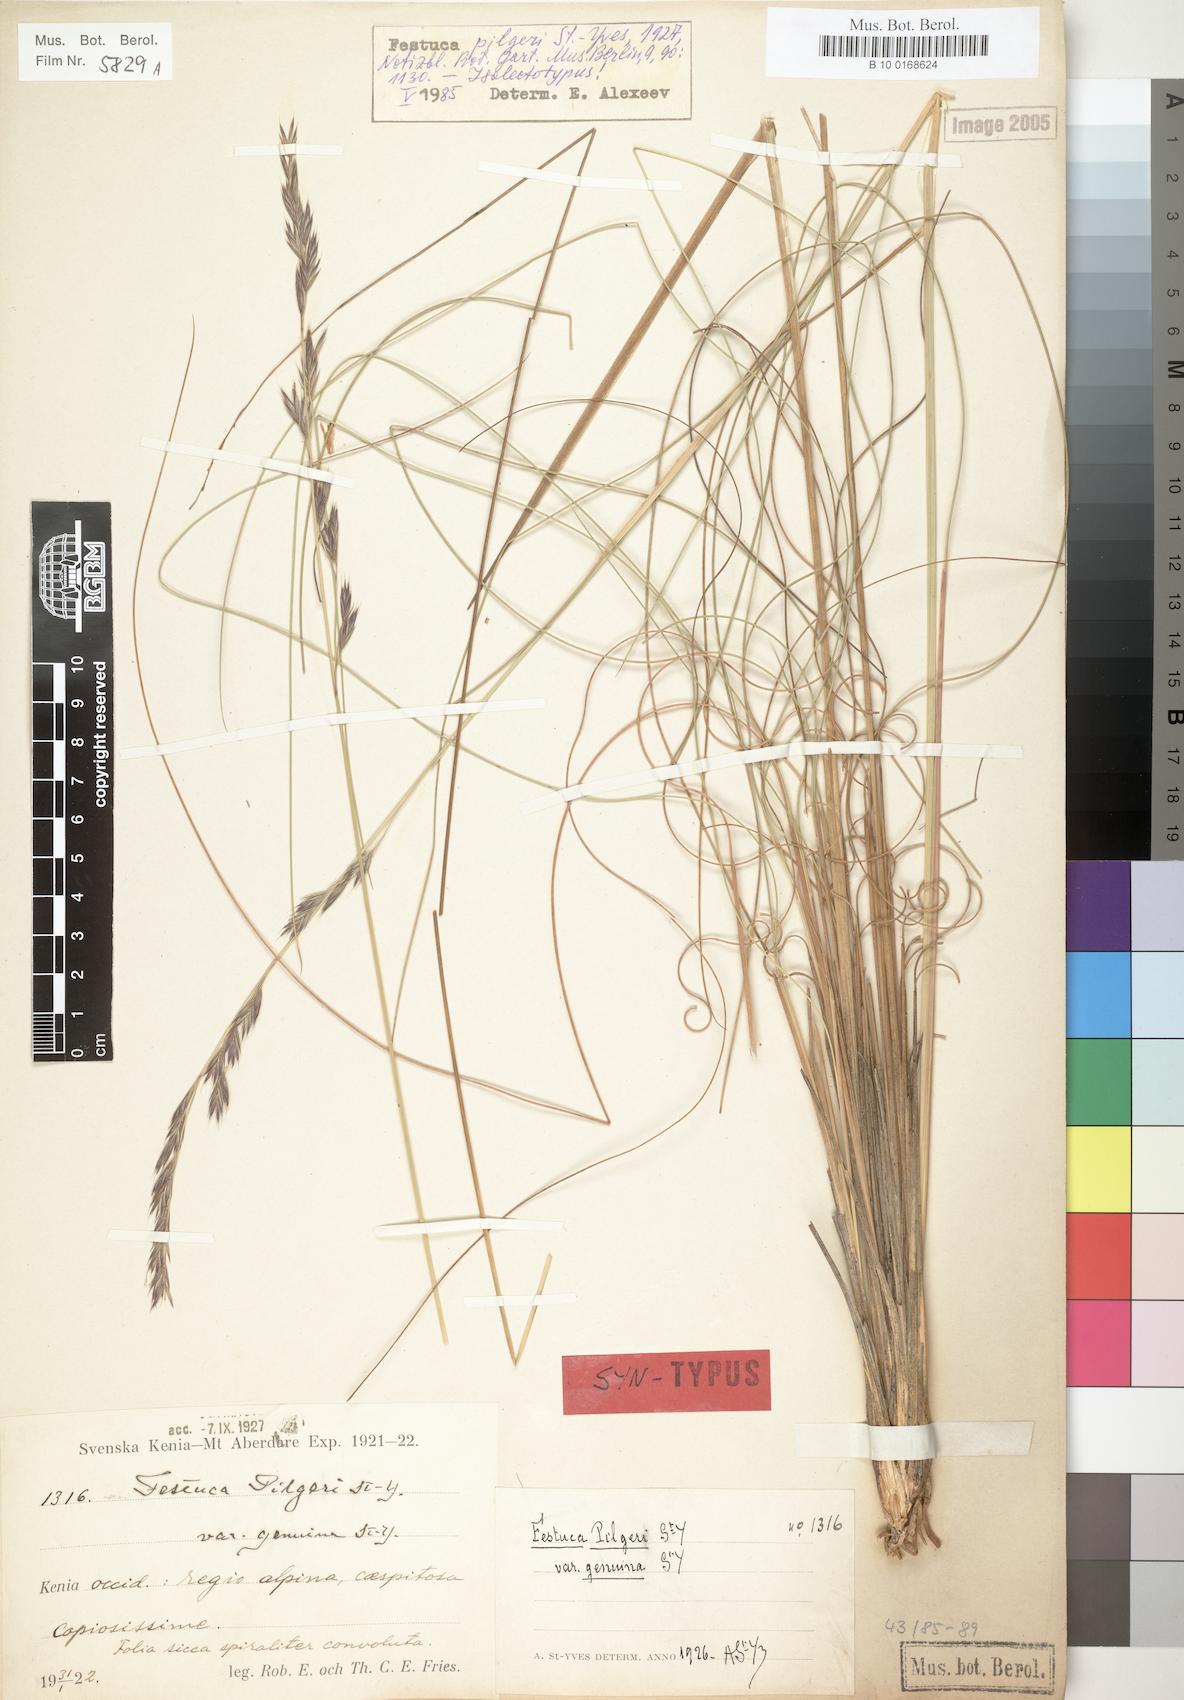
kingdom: Plantae
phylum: Tracheophyta
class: Liliopsida
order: Poales
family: Poaceae
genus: Festuca
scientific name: Festuca pilgeri
